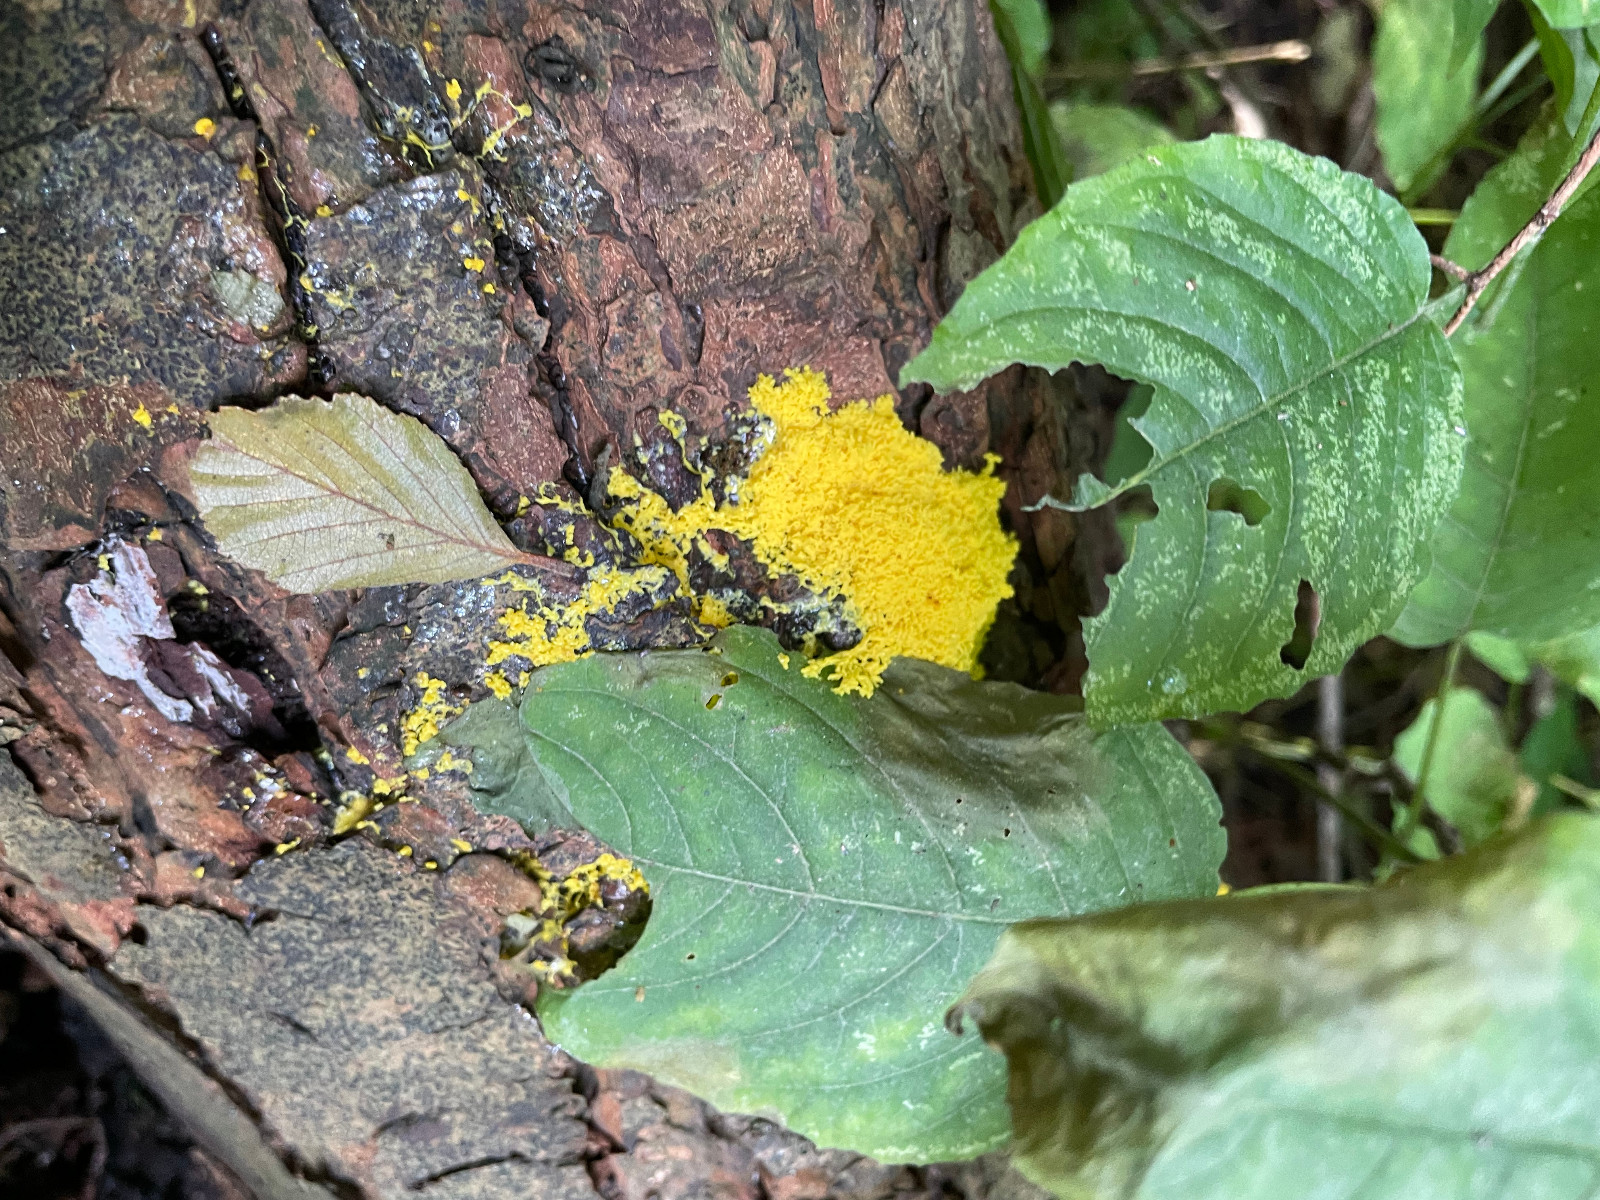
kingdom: Protozoa
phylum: Mycetozoa
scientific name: Mycetozoa
